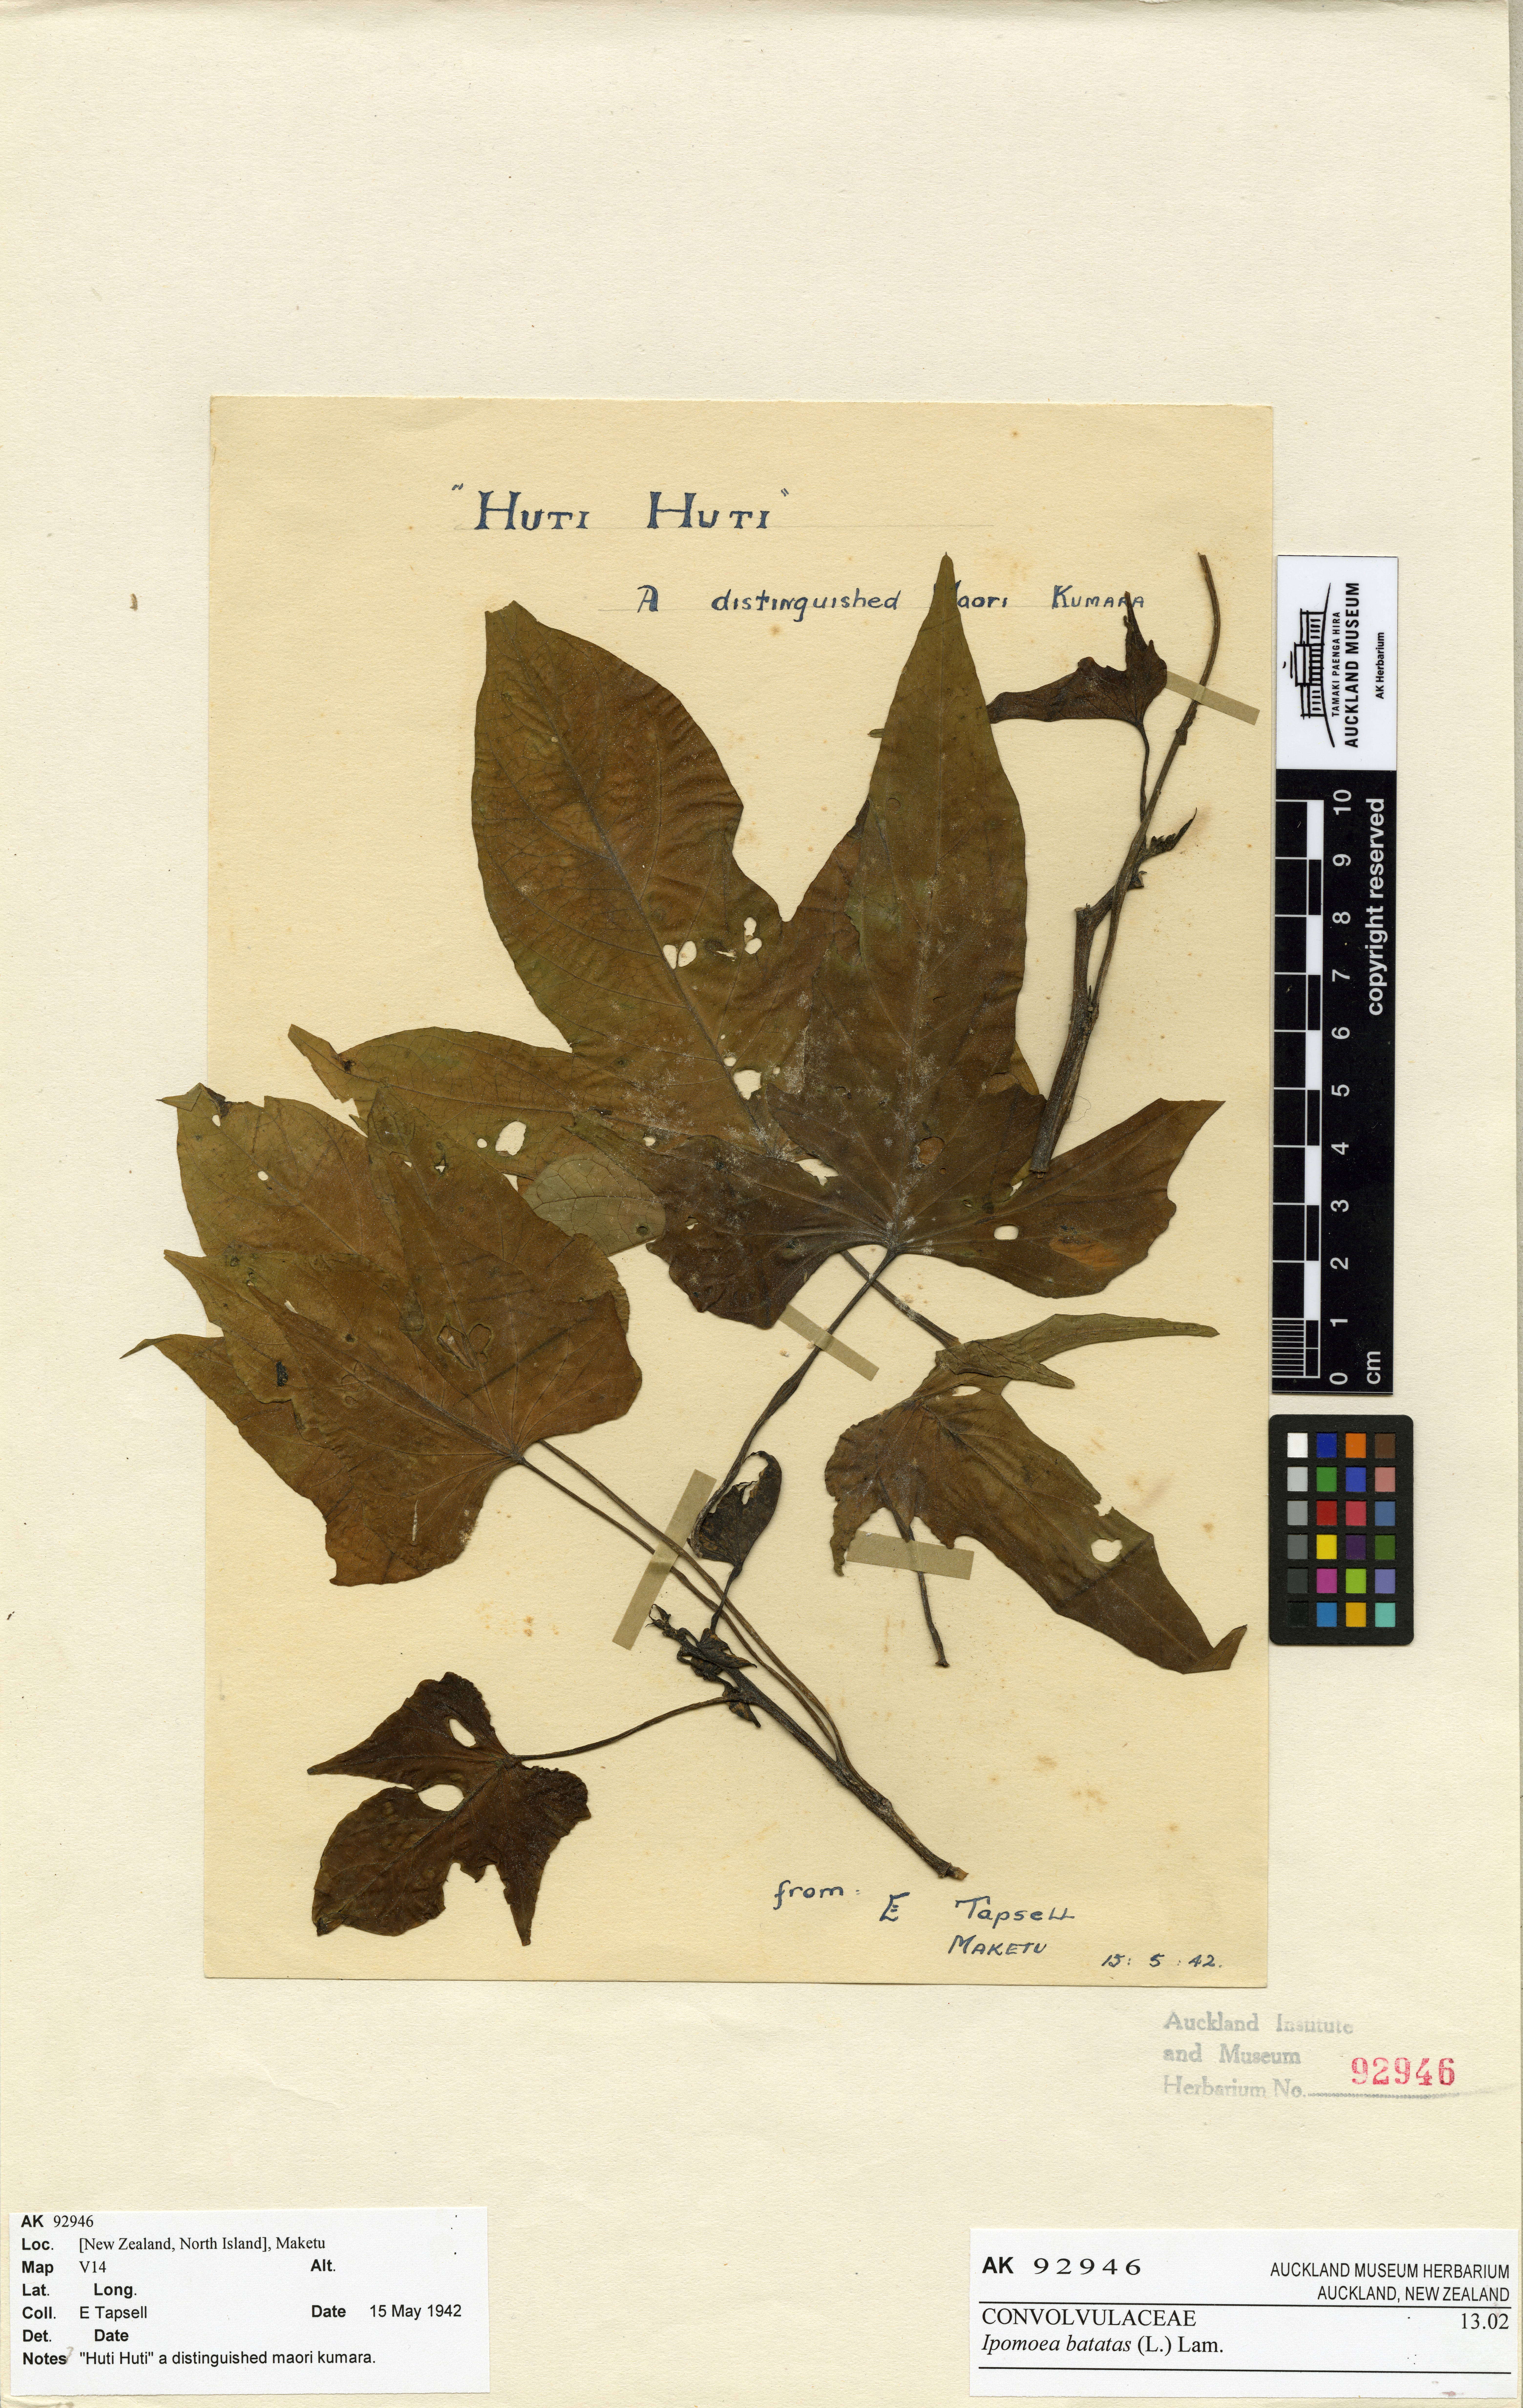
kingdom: Plantae
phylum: Tracheophyta
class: Magnoliopsida
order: Solanales
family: Convolvulaceae
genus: Ipomoea
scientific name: Ipomoea batatas
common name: Sweet-potato
